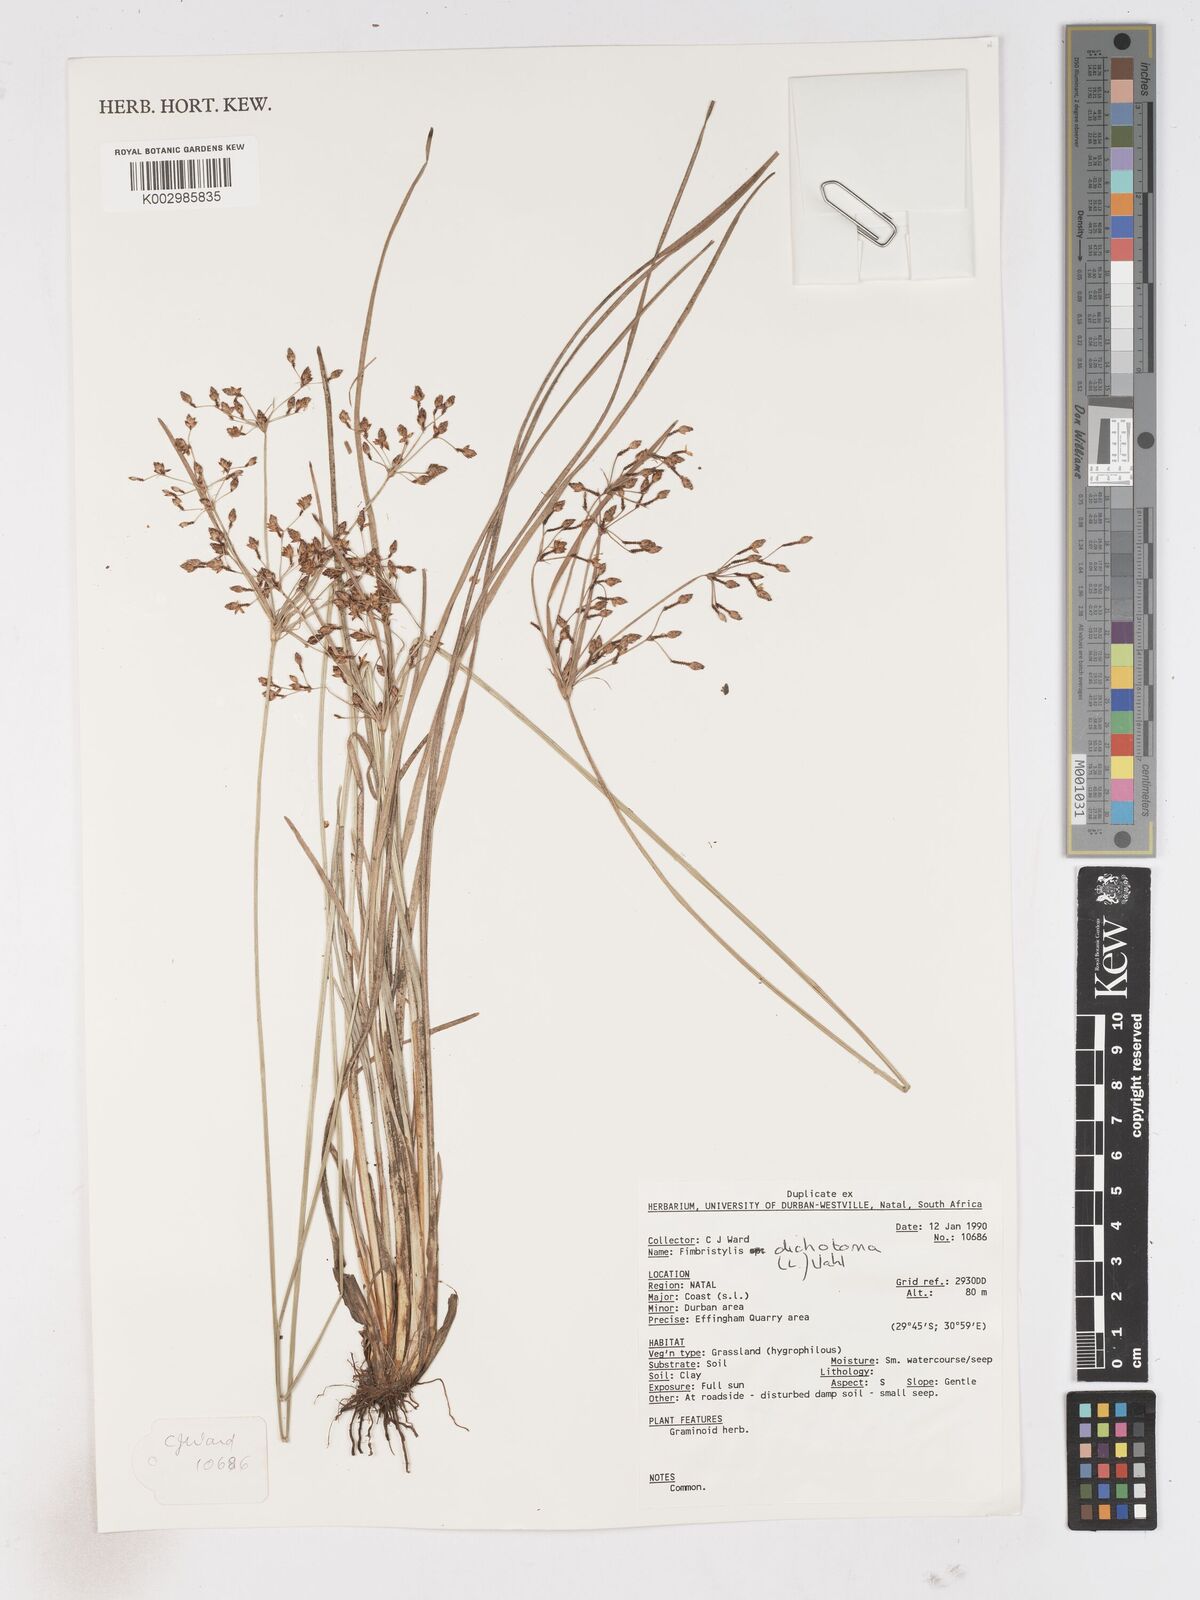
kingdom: Plantae
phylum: Tracheophyta
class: Liliopsida
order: Poales
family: Cyperaceae
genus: Fimbristylis
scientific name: Fimbristylis dichotoma
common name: Forked fimbry
